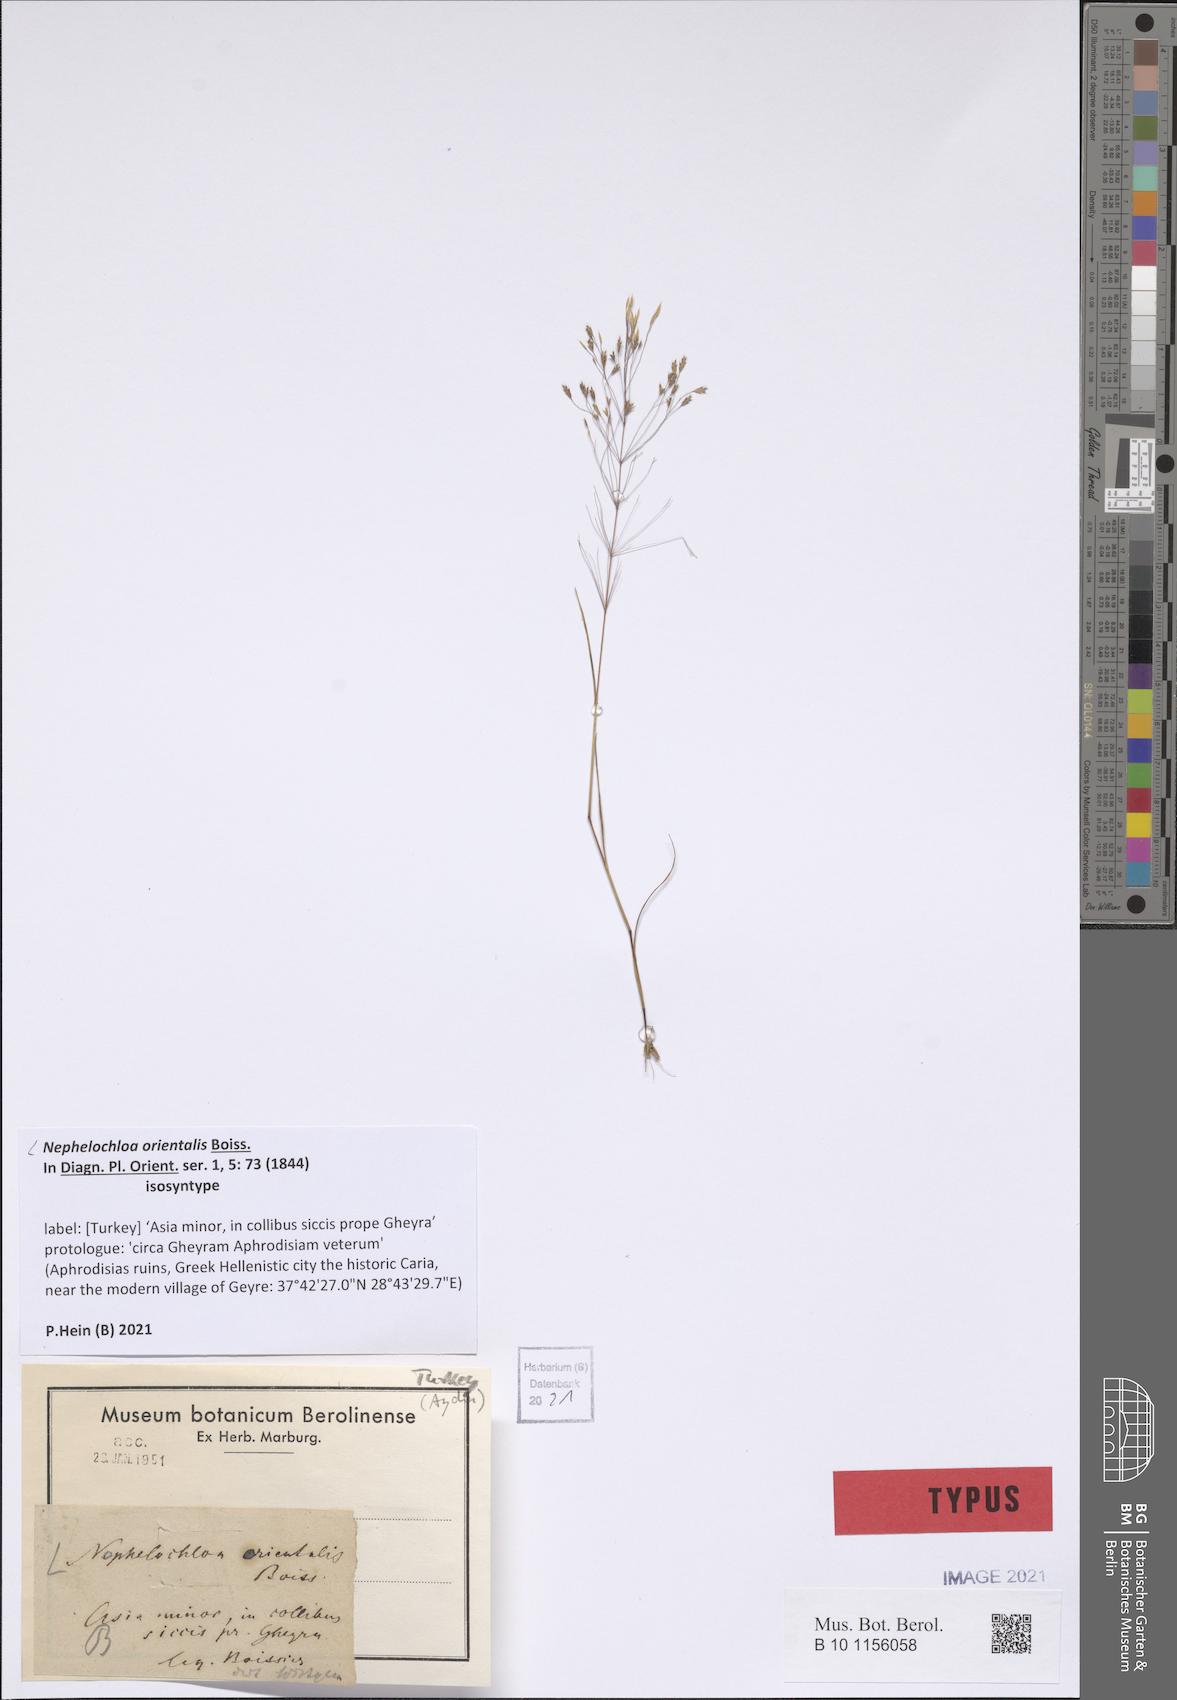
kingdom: Plantae
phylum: Tracheophyta
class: Liliopsida
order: Poales
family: Poaceae
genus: Nephelochloa
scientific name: Nephelochloa orientalis
